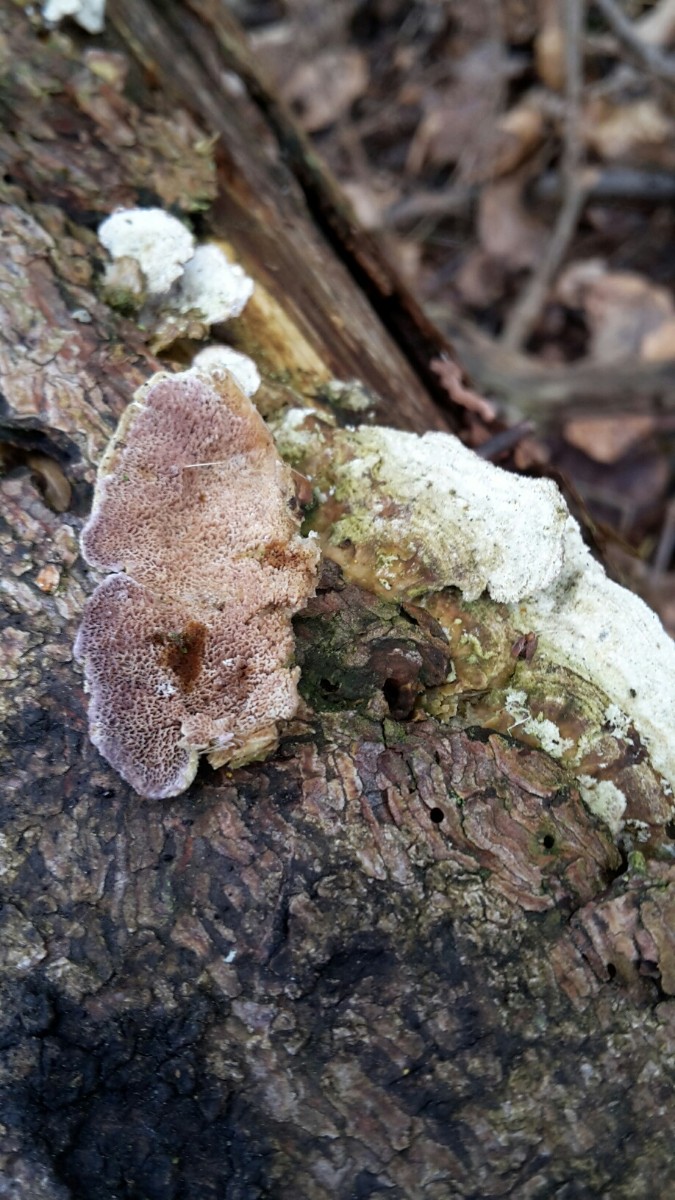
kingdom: Fungi
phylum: Basidiomycota
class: Agaricomycetes
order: Hymenochaetales
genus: Trichaptum
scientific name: Trichaptum abietinum
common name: almindelig violporesvamp
